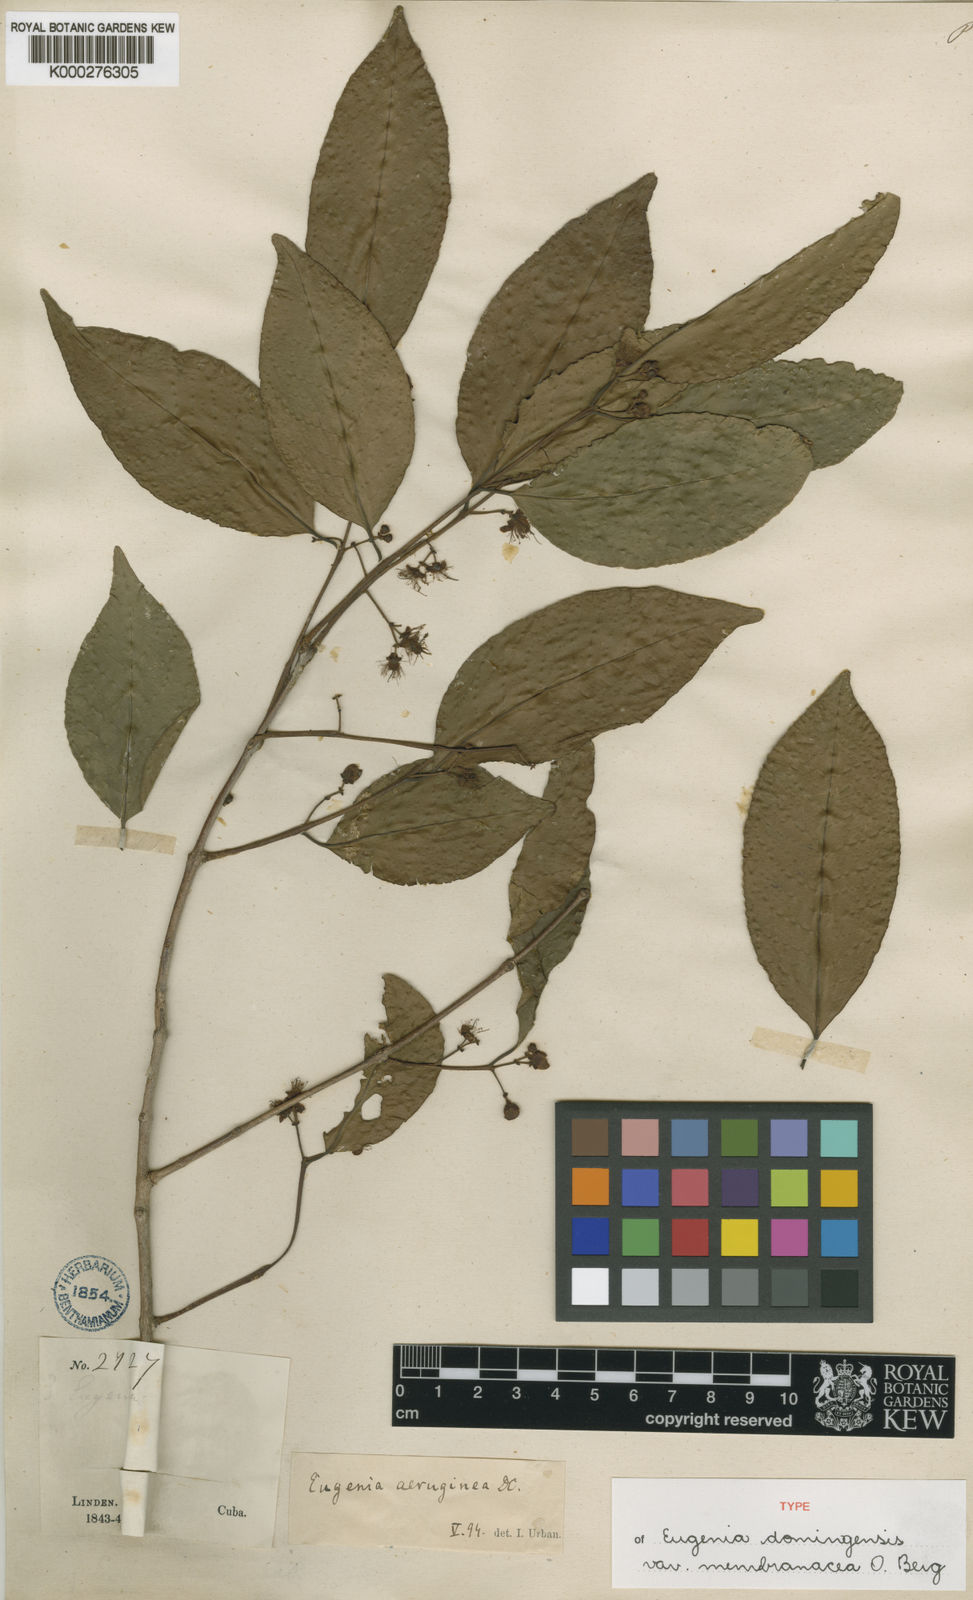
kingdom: Plantae
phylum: Tracheophyta
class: Magnoliopsida
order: Myrtales
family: Myrtaceae
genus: Eugenia
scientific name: Eugenia domingensis
